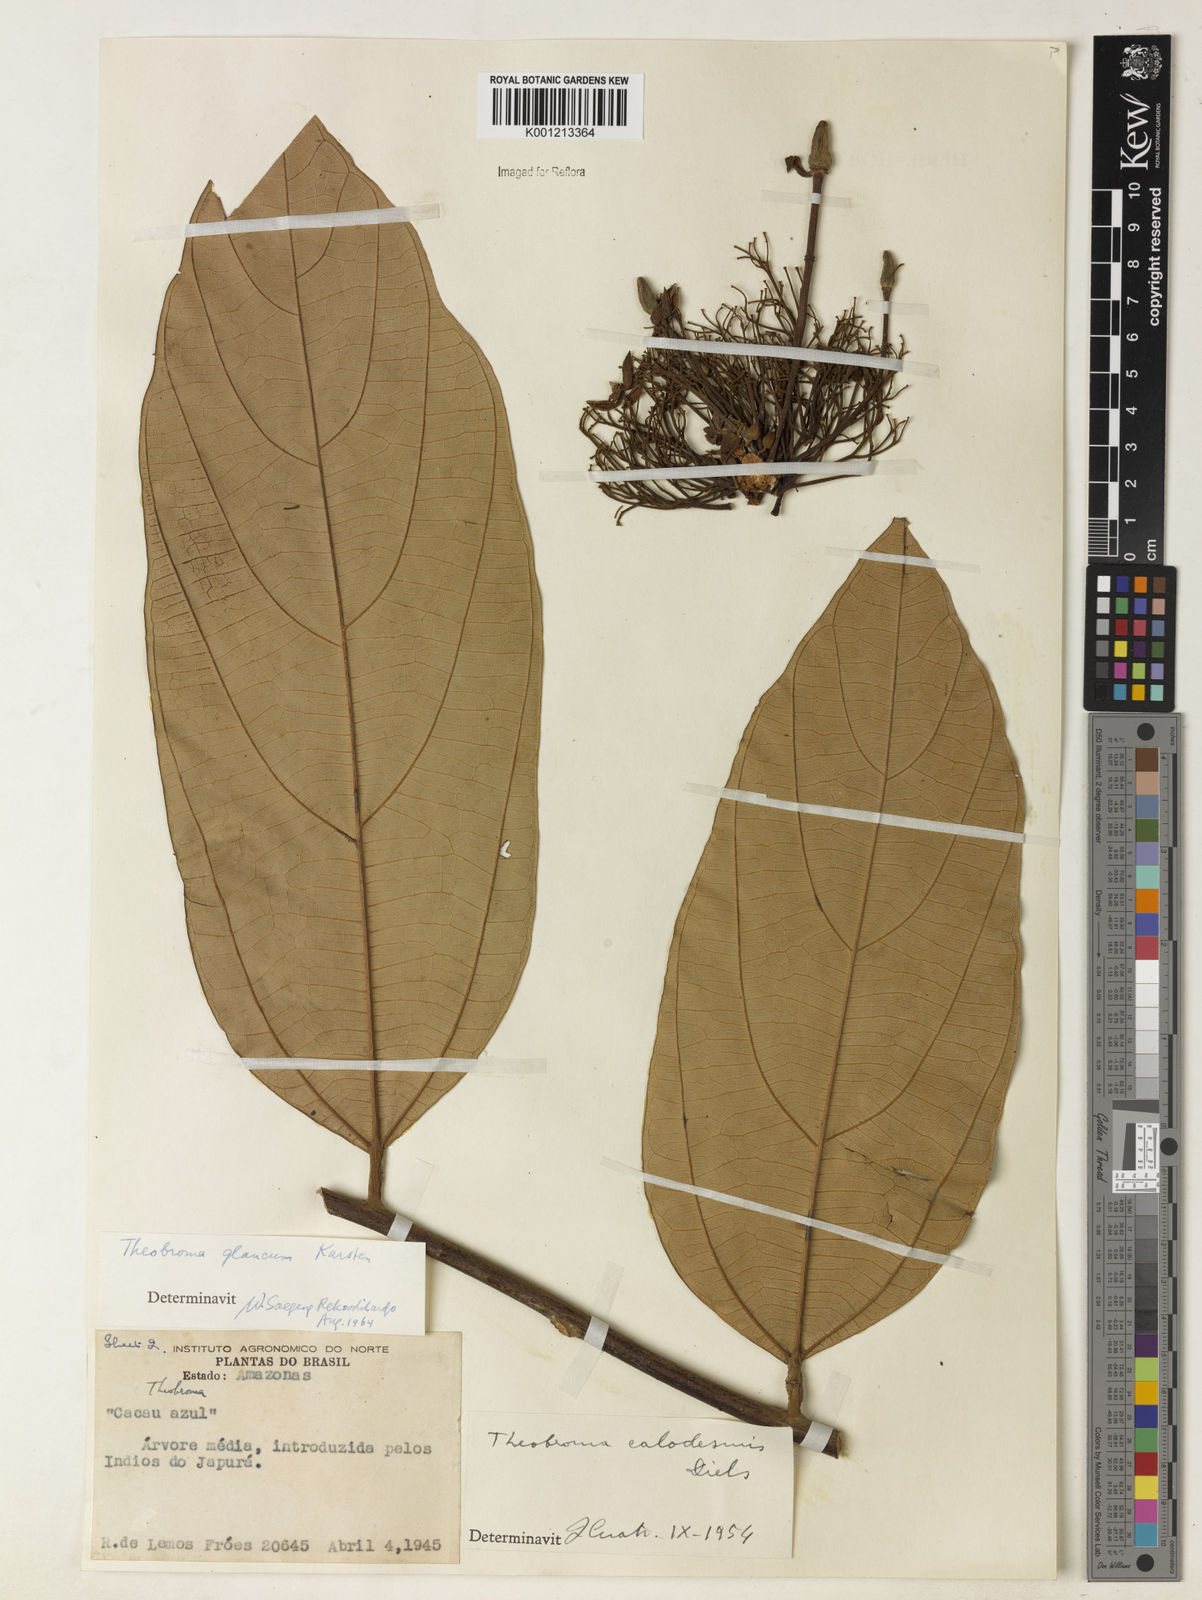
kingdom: Plantae
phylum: Tracheophyta
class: Magnoliopsida
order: Malvales
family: Malvaceae
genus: Theobroma
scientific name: Theobroma glaucum
